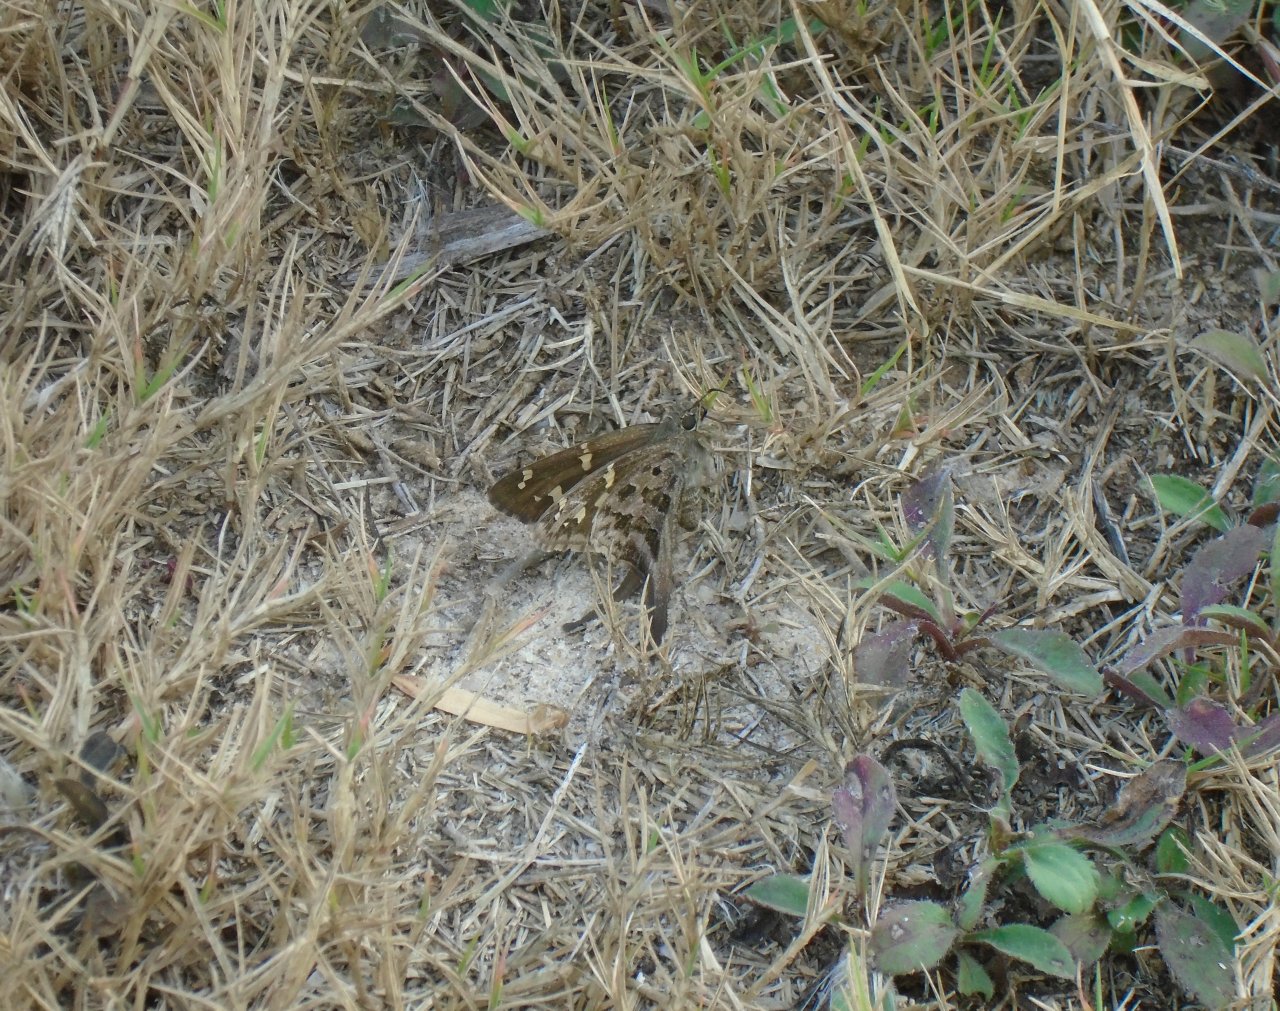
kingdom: Animalia
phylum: Arthropoda
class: Insecta
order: Lepidoptera
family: Hesperiidae
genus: Urbanus
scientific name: Urbanus dorantes
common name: Dorantes Longtail
